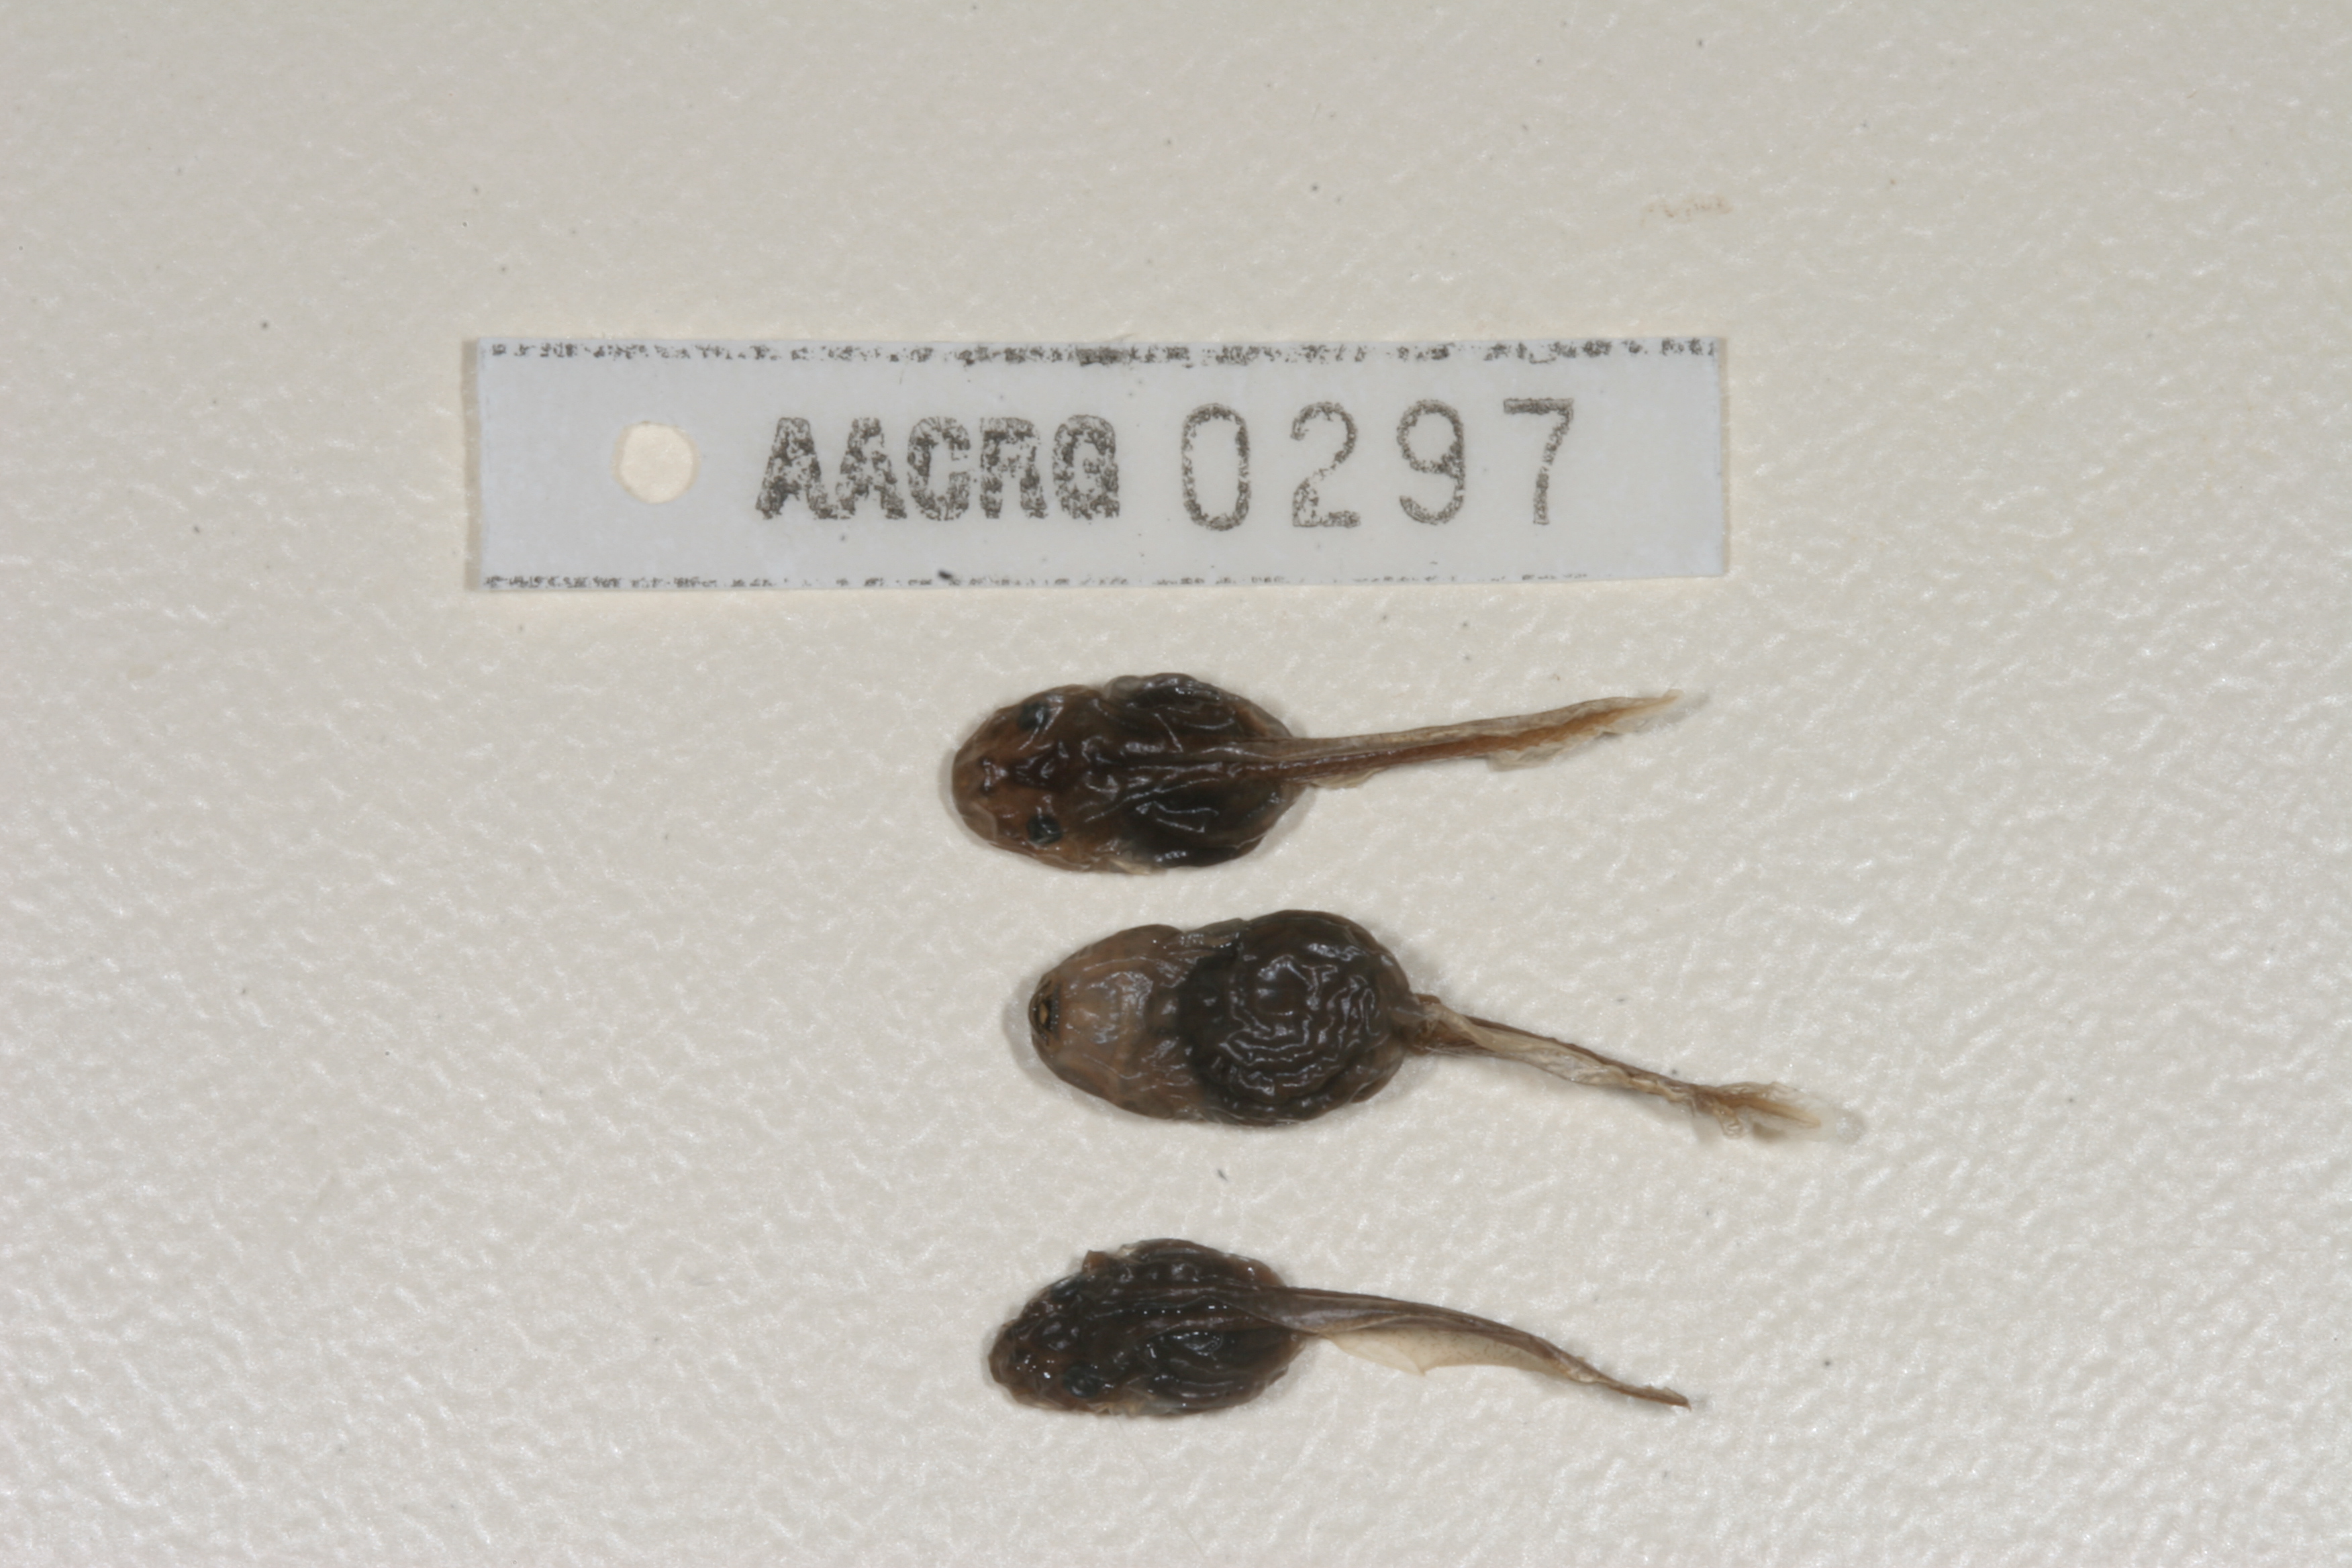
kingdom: Animalia
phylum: Chordata
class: Amphibia
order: Anura
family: Pyxicephalidae
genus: Cacosternum
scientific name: Cacosternum nanum
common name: Bronze dainty frog
